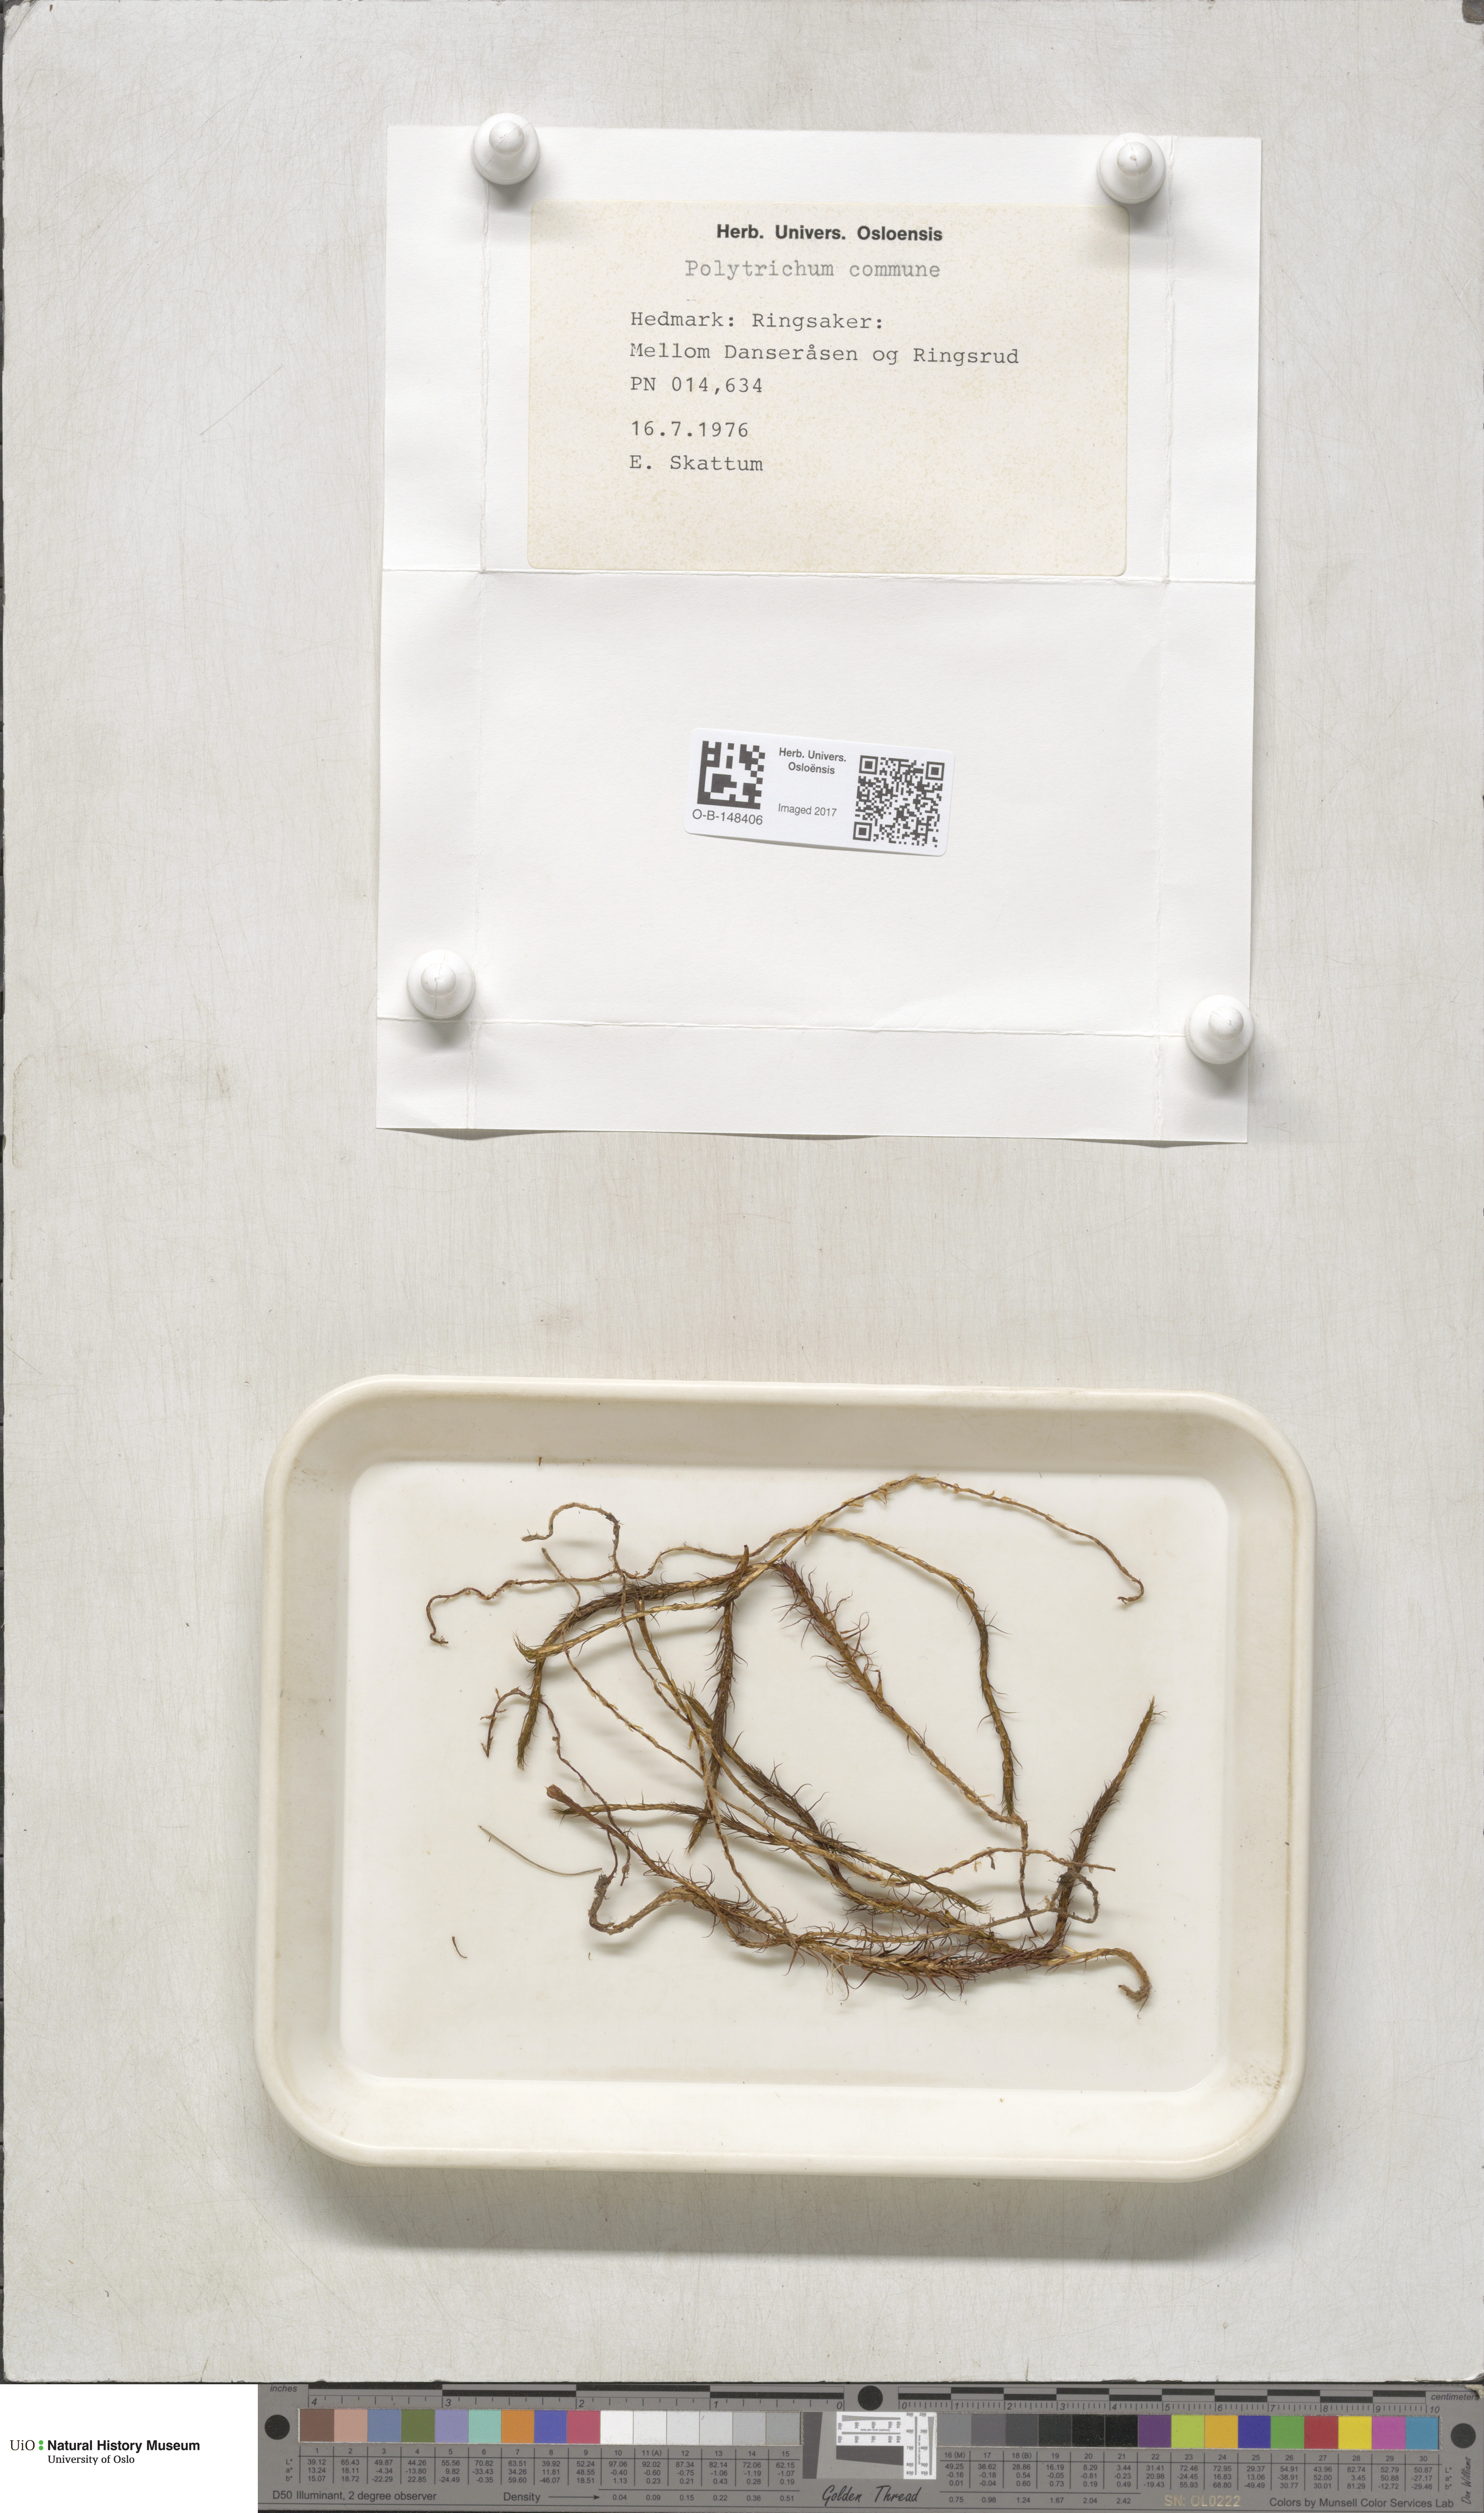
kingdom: Plantae
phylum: Bryophyta
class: Polytrichopsida
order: Polytrichales
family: Polytrichaceae
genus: Polytrichum
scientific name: Polytrichum commune
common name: Common haircap
